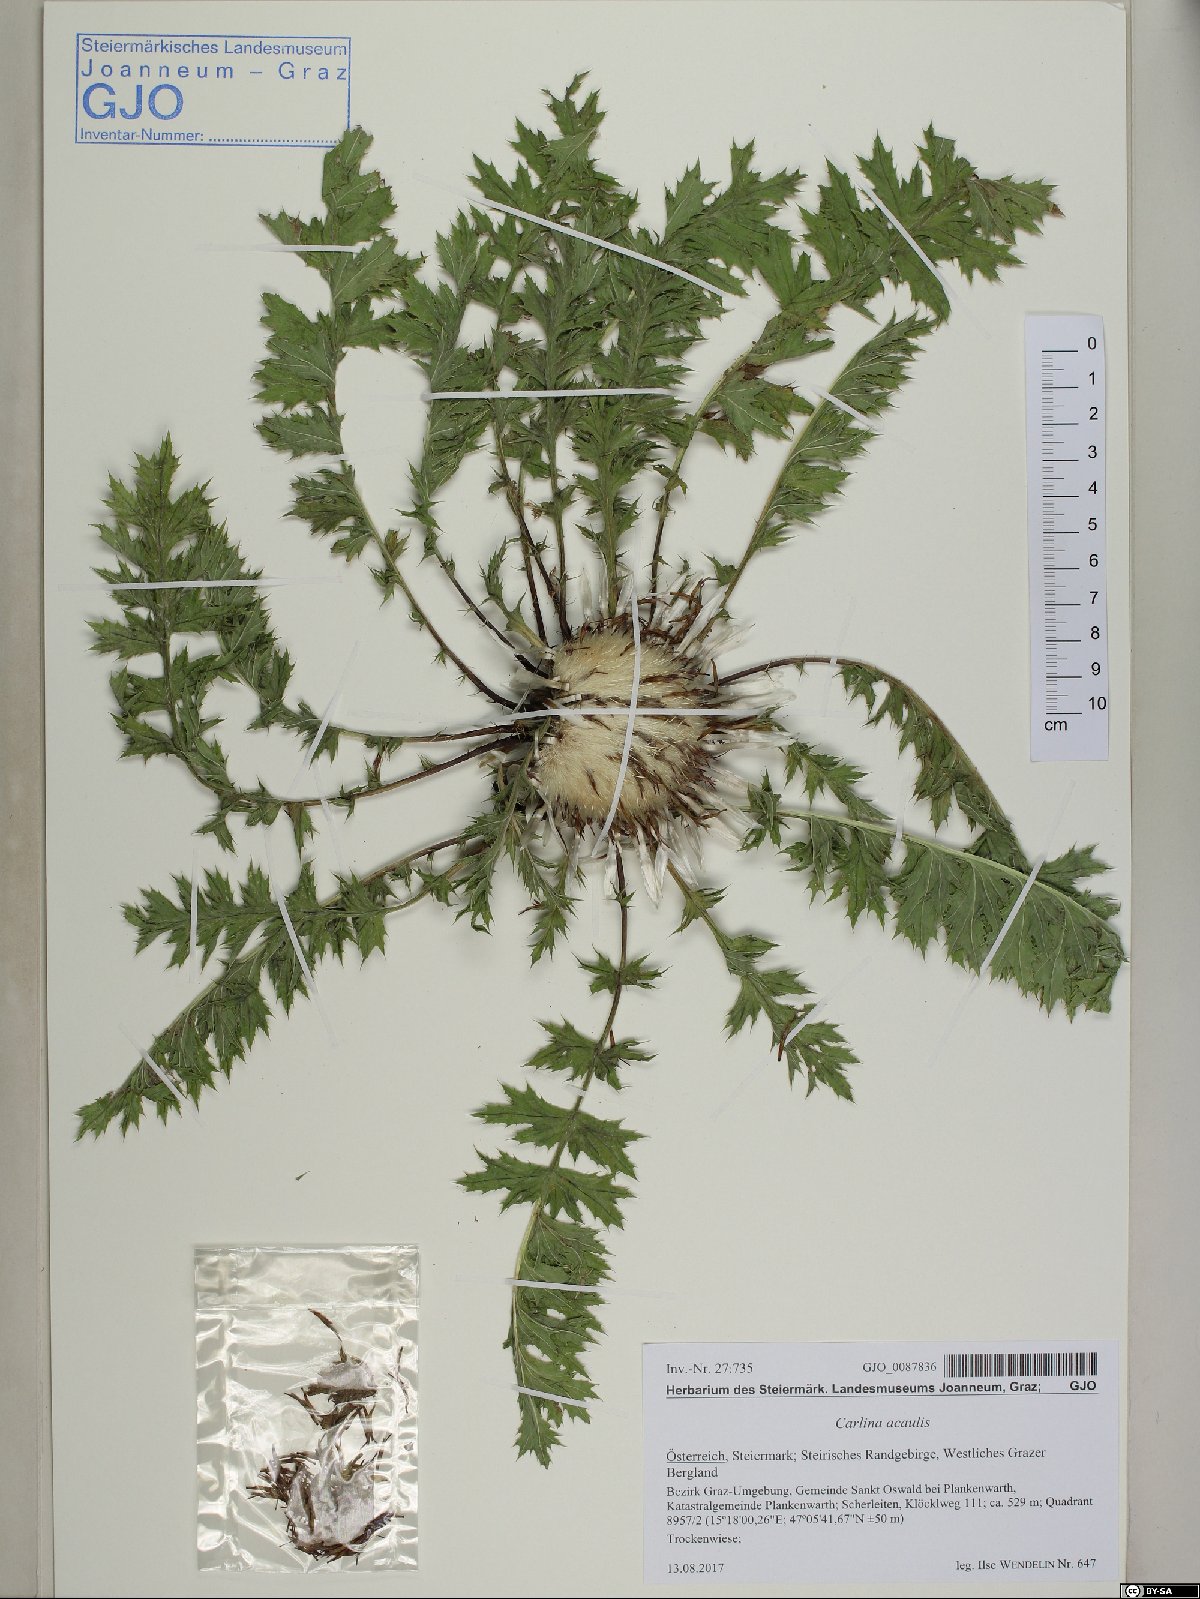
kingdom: Plantae
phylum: Tracheophyta
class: Magnoliopsida
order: Asterales
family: Asteraceae
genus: Carlina
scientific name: Carlina acaulis
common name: Stemless carline thistle
